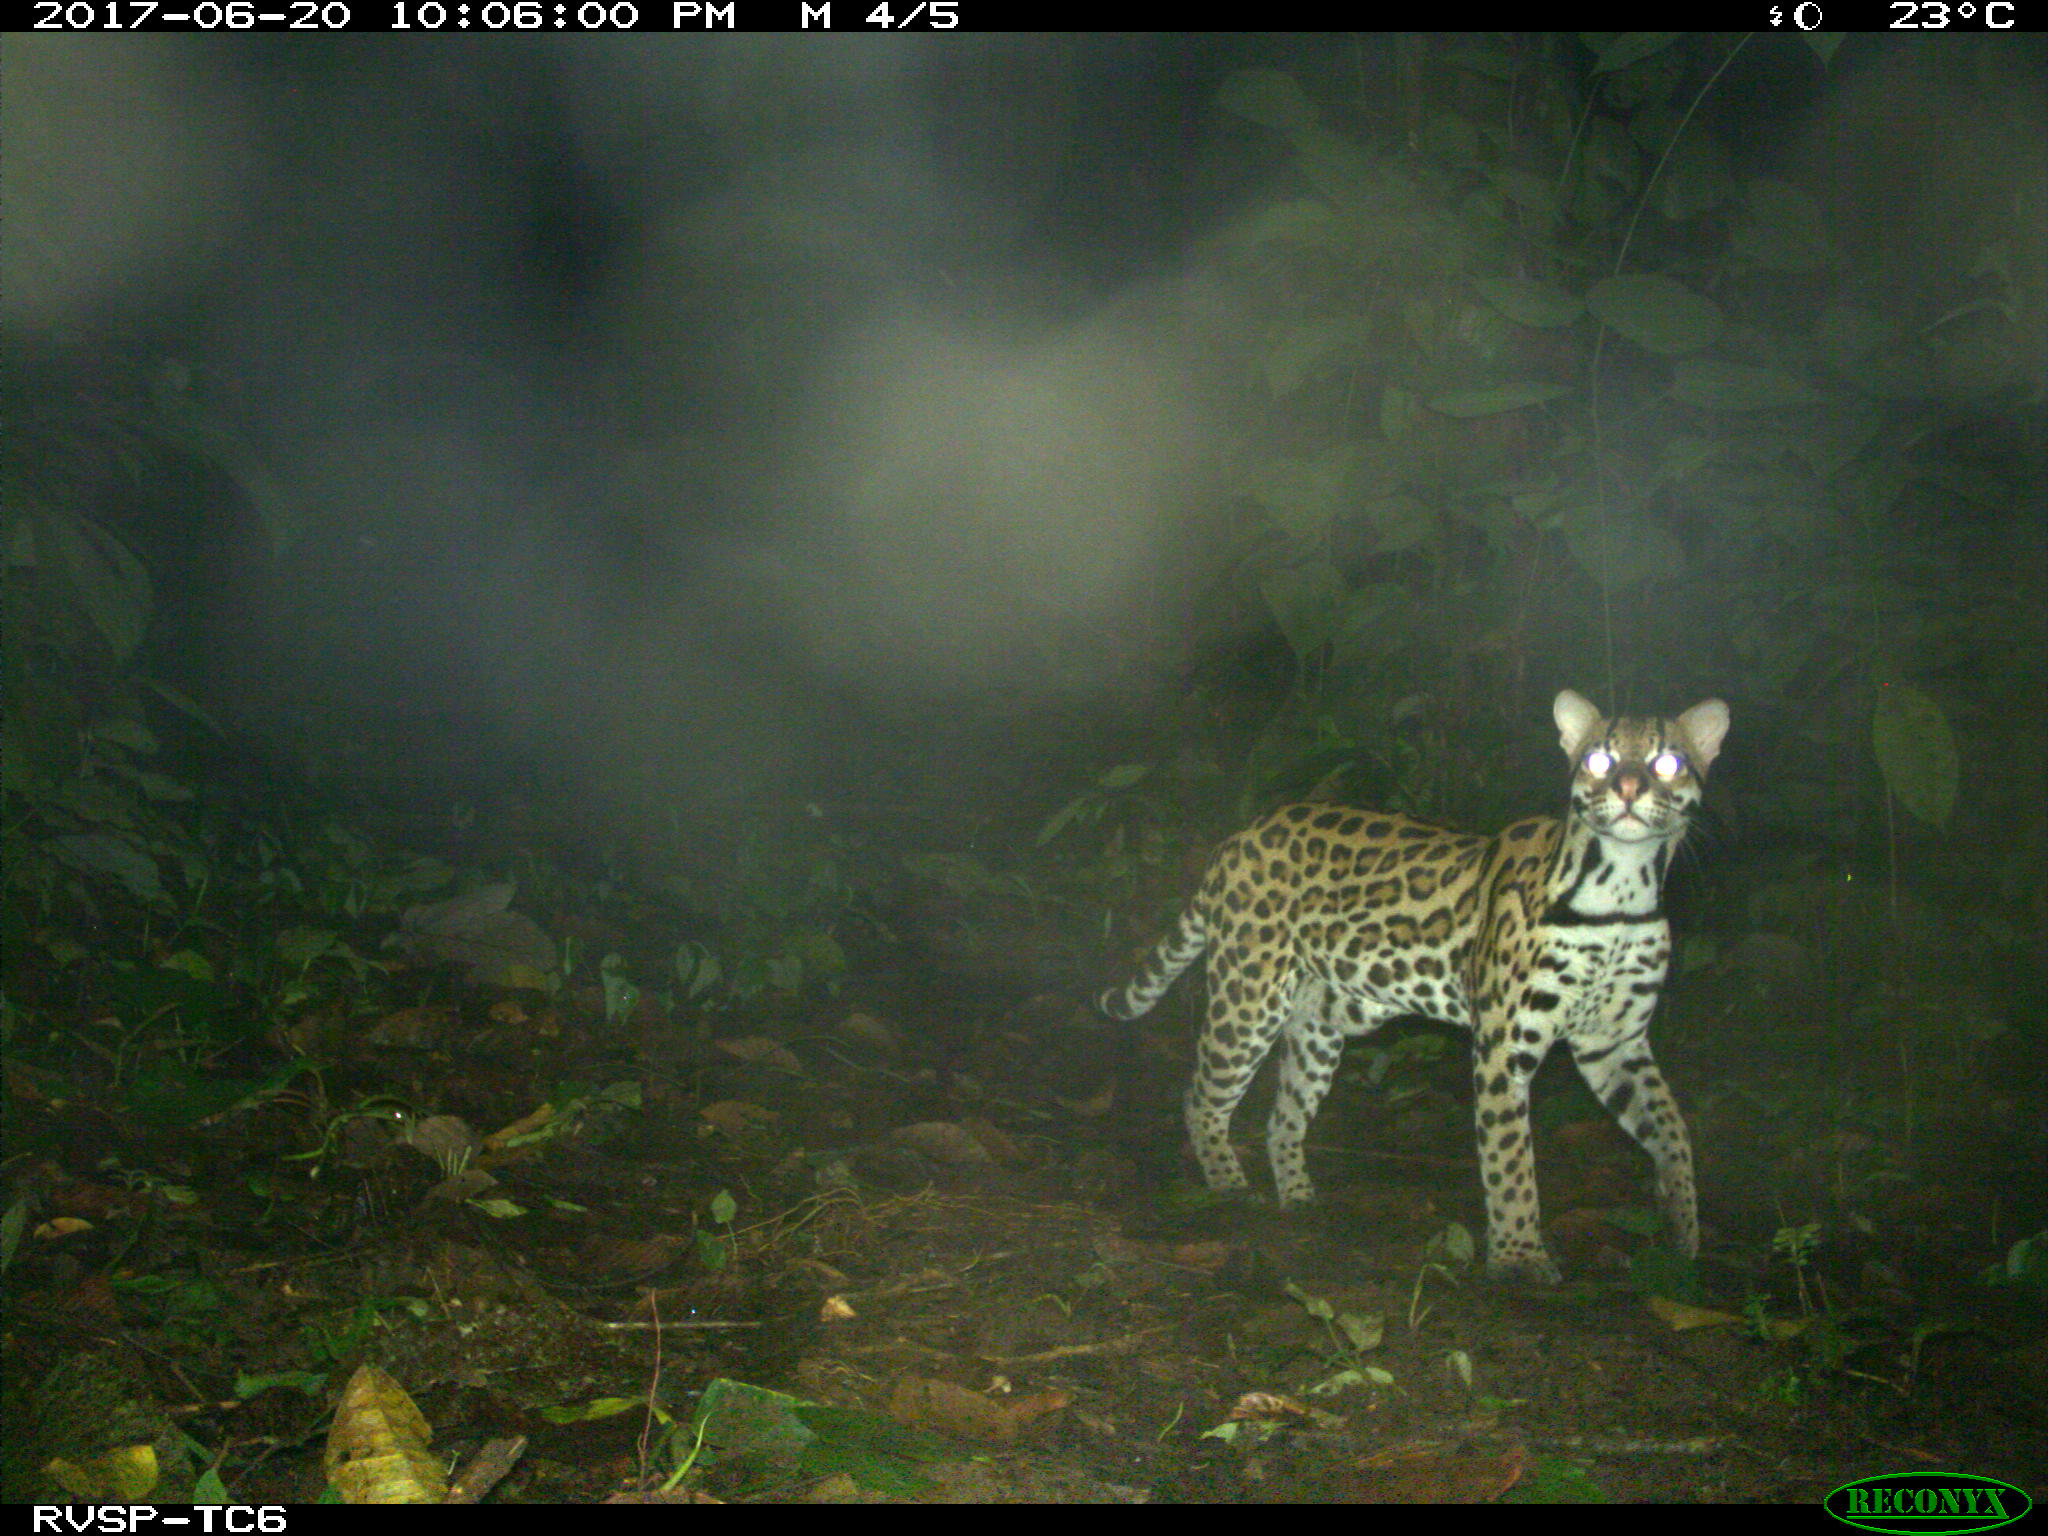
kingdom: Animalia
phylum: Chordata
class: Mammalia
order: Carnivora
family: Felidae
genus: Leopardus
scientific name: Leopardus pardalis
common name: Ocelot
